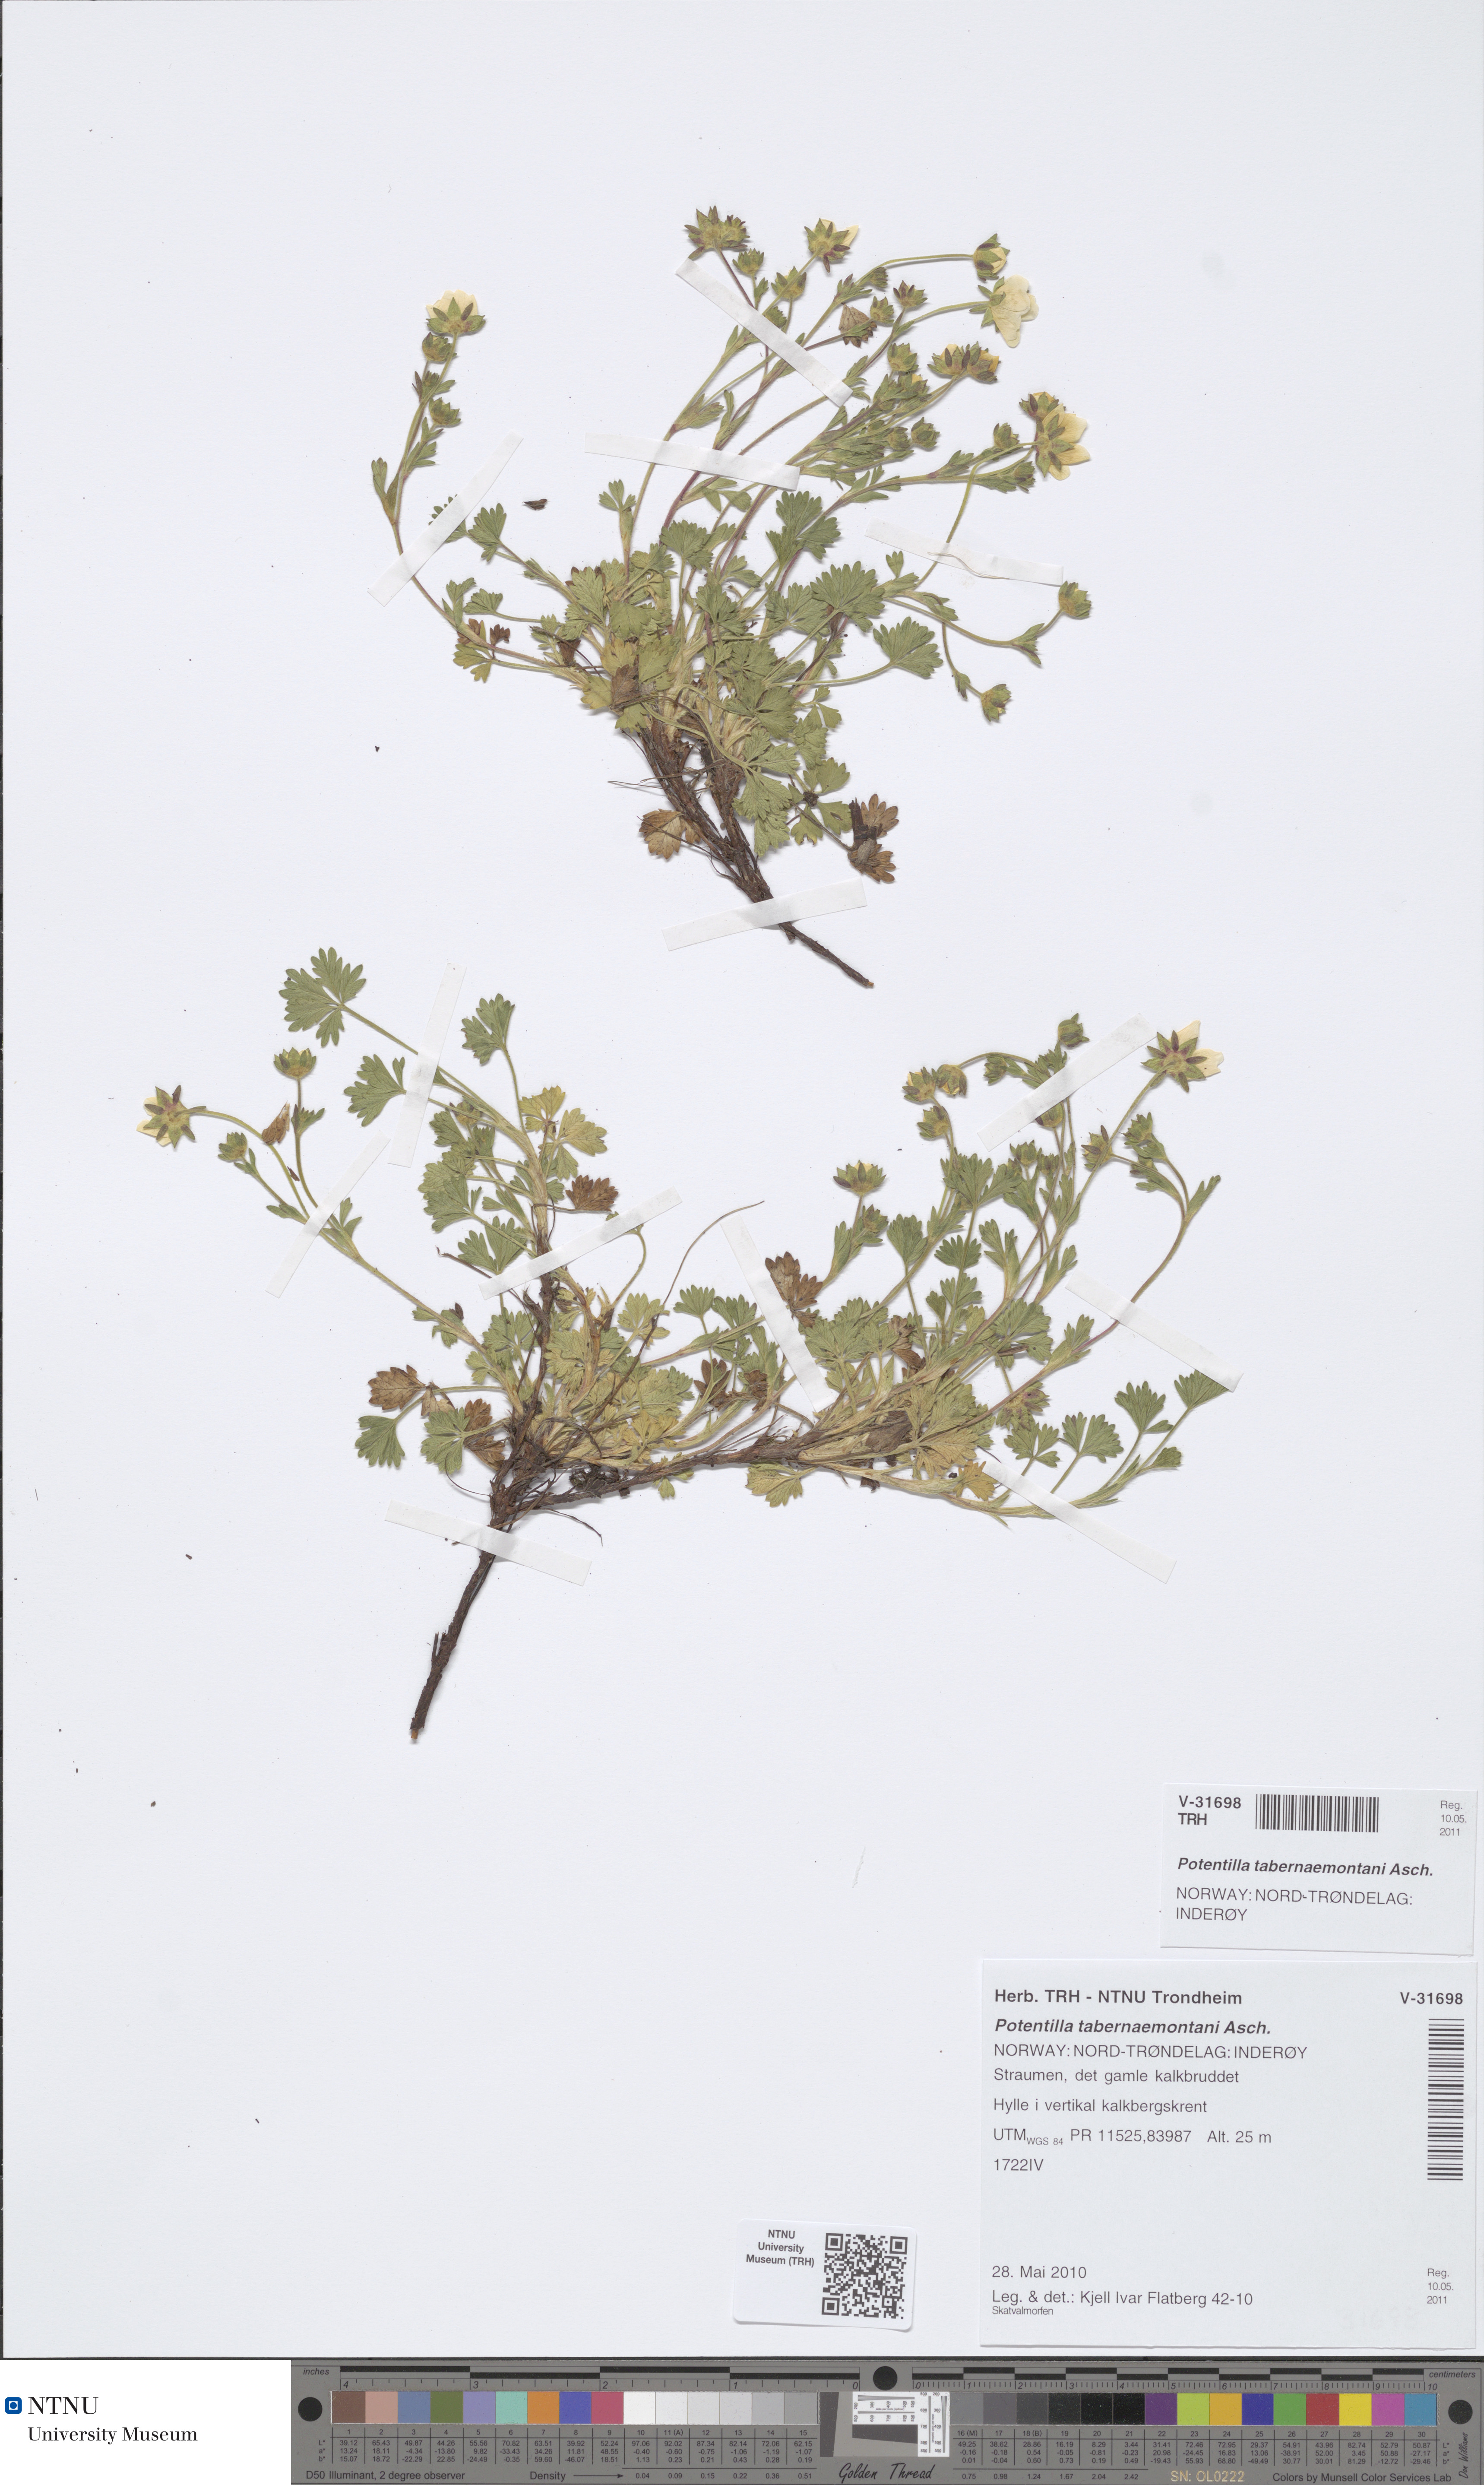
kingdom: Plantae
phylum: Tracheophyta
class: Magnoliopsida
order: Rosales
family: Rosaceae
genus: Potentilla
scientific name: Potentilla verna
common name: Spring cinquefoil
